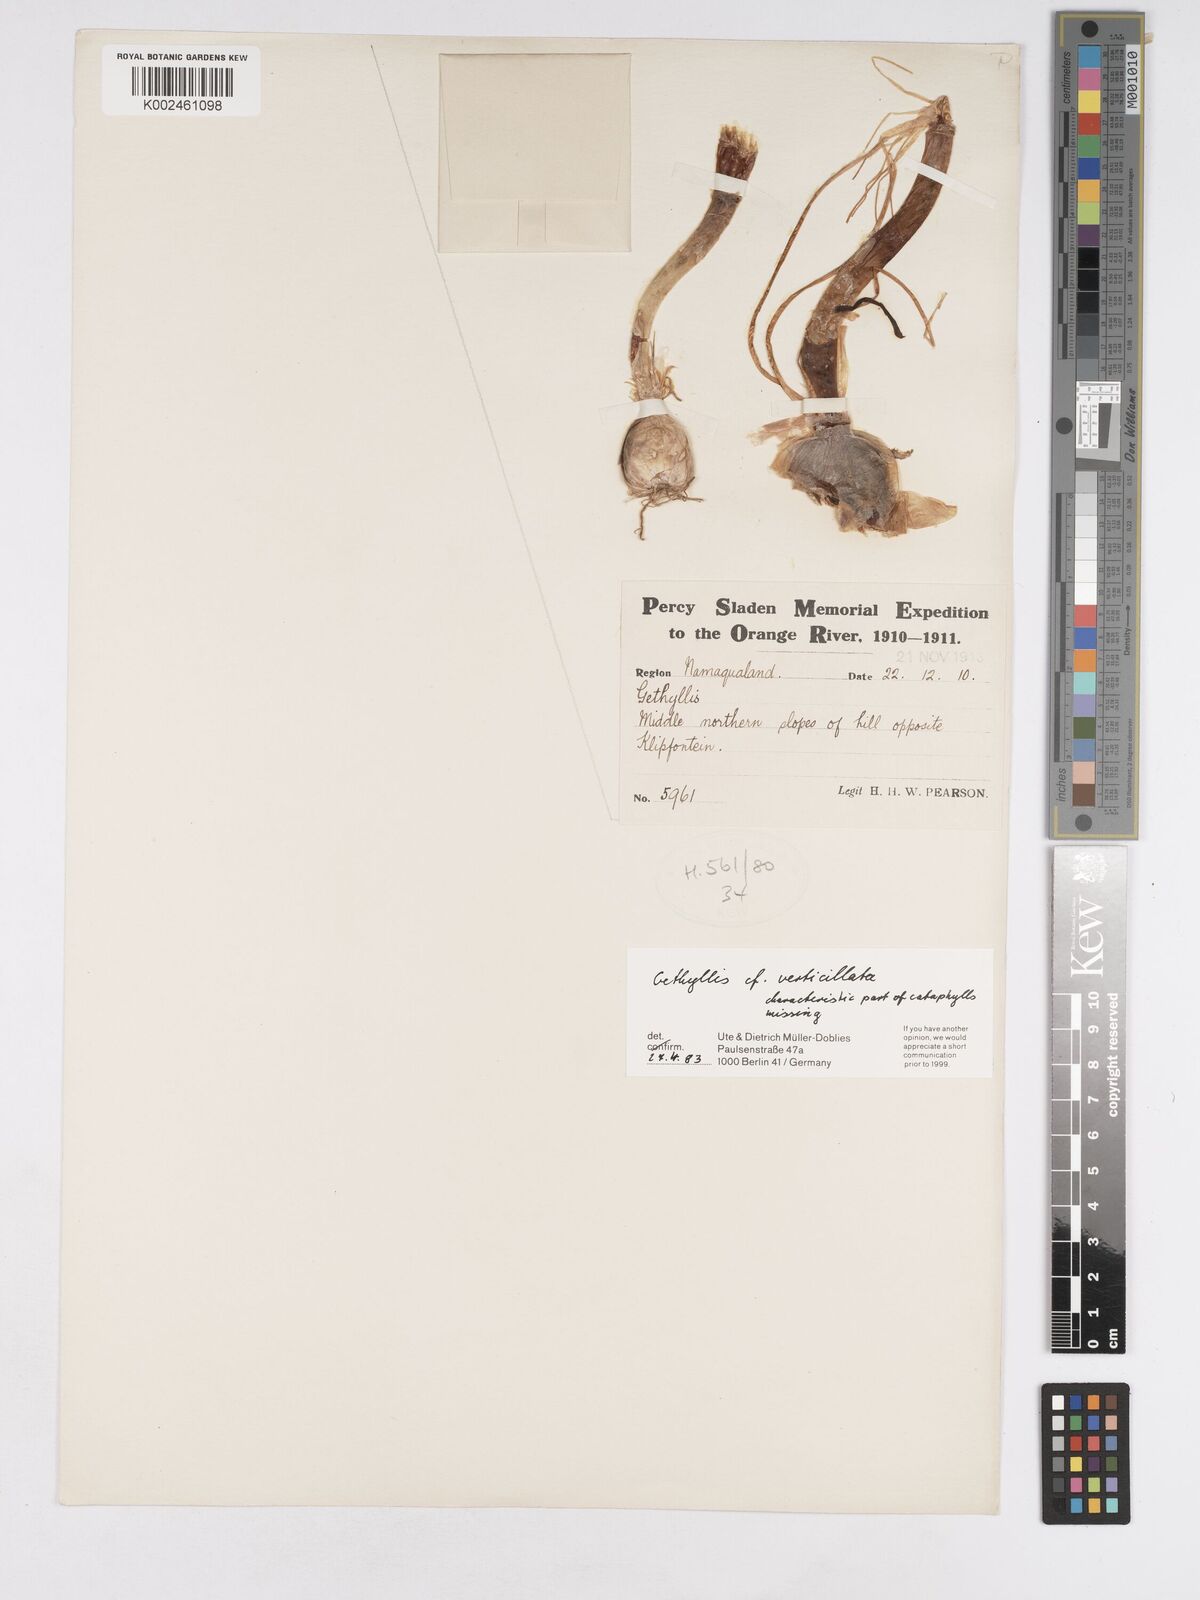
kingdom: Plantae
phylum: Tracheophyta
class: Liliopsida
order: Asparagales
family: Amaryllidaceae
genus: Gethyllis
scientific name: Gethyllis verticillata
